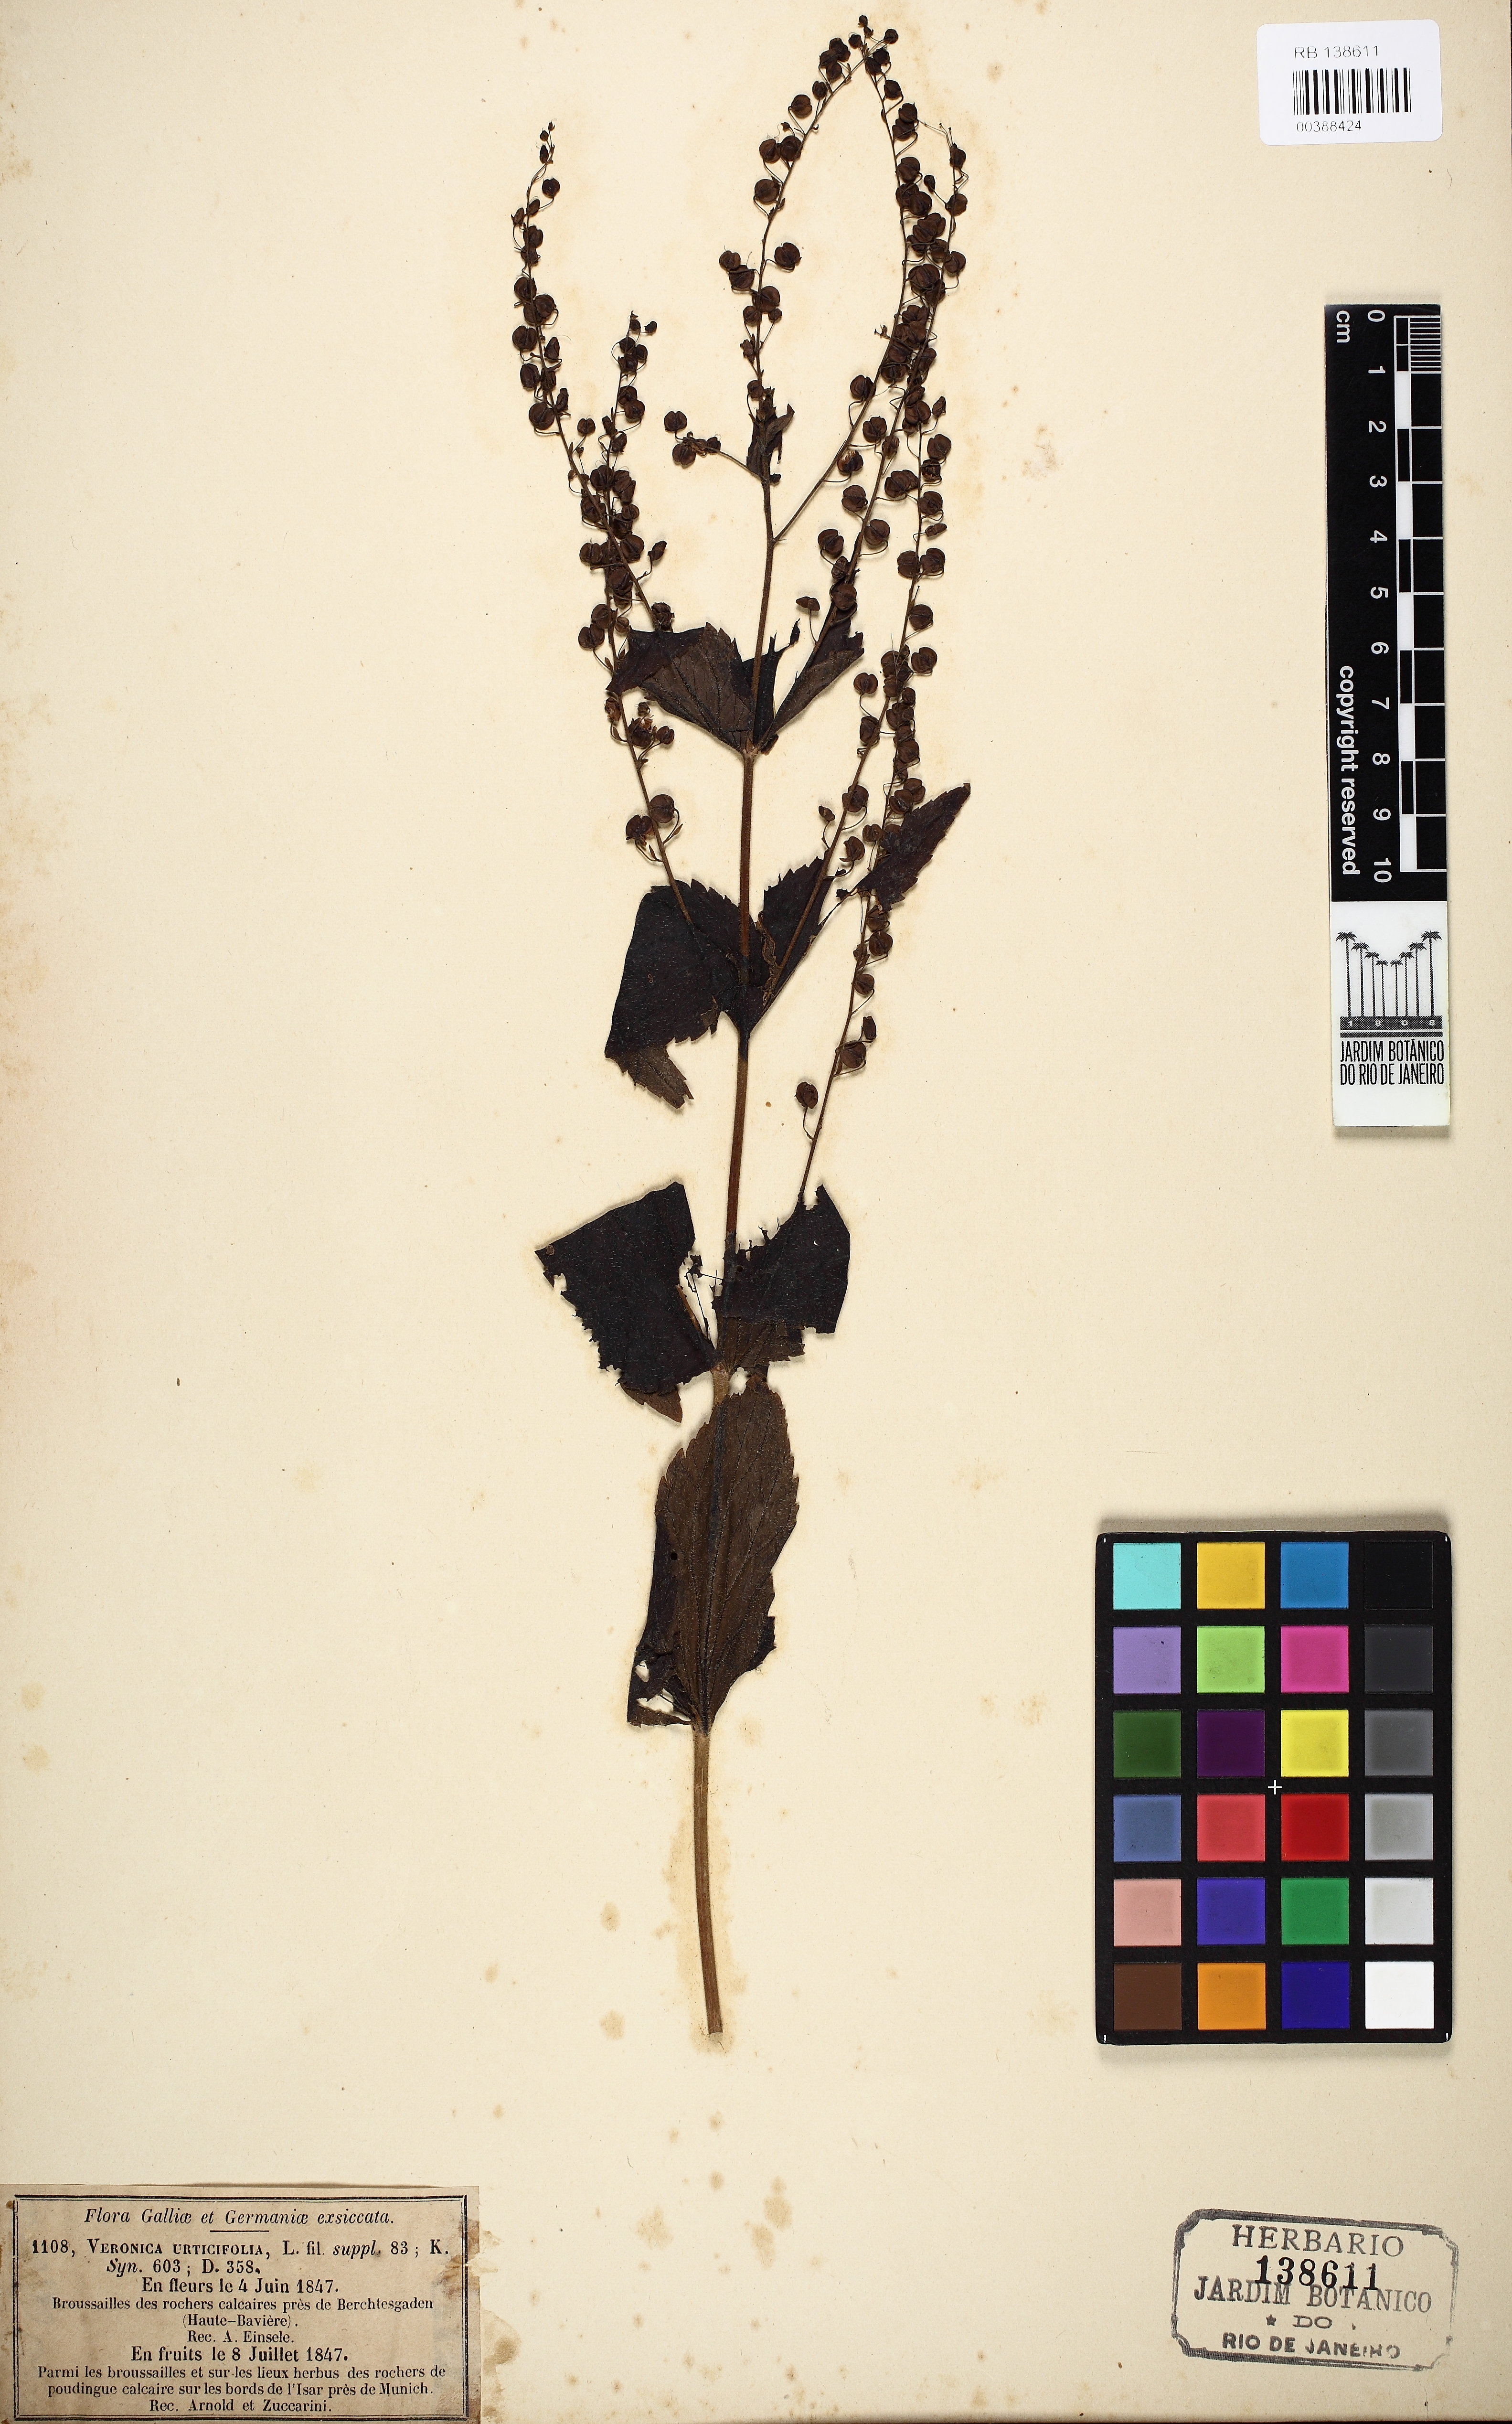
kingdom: Plantae
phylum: Tracheophyta
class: Magnoliopsida
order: Lamiales
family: Scrophulariaceae
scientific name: Scrophulariaceae
